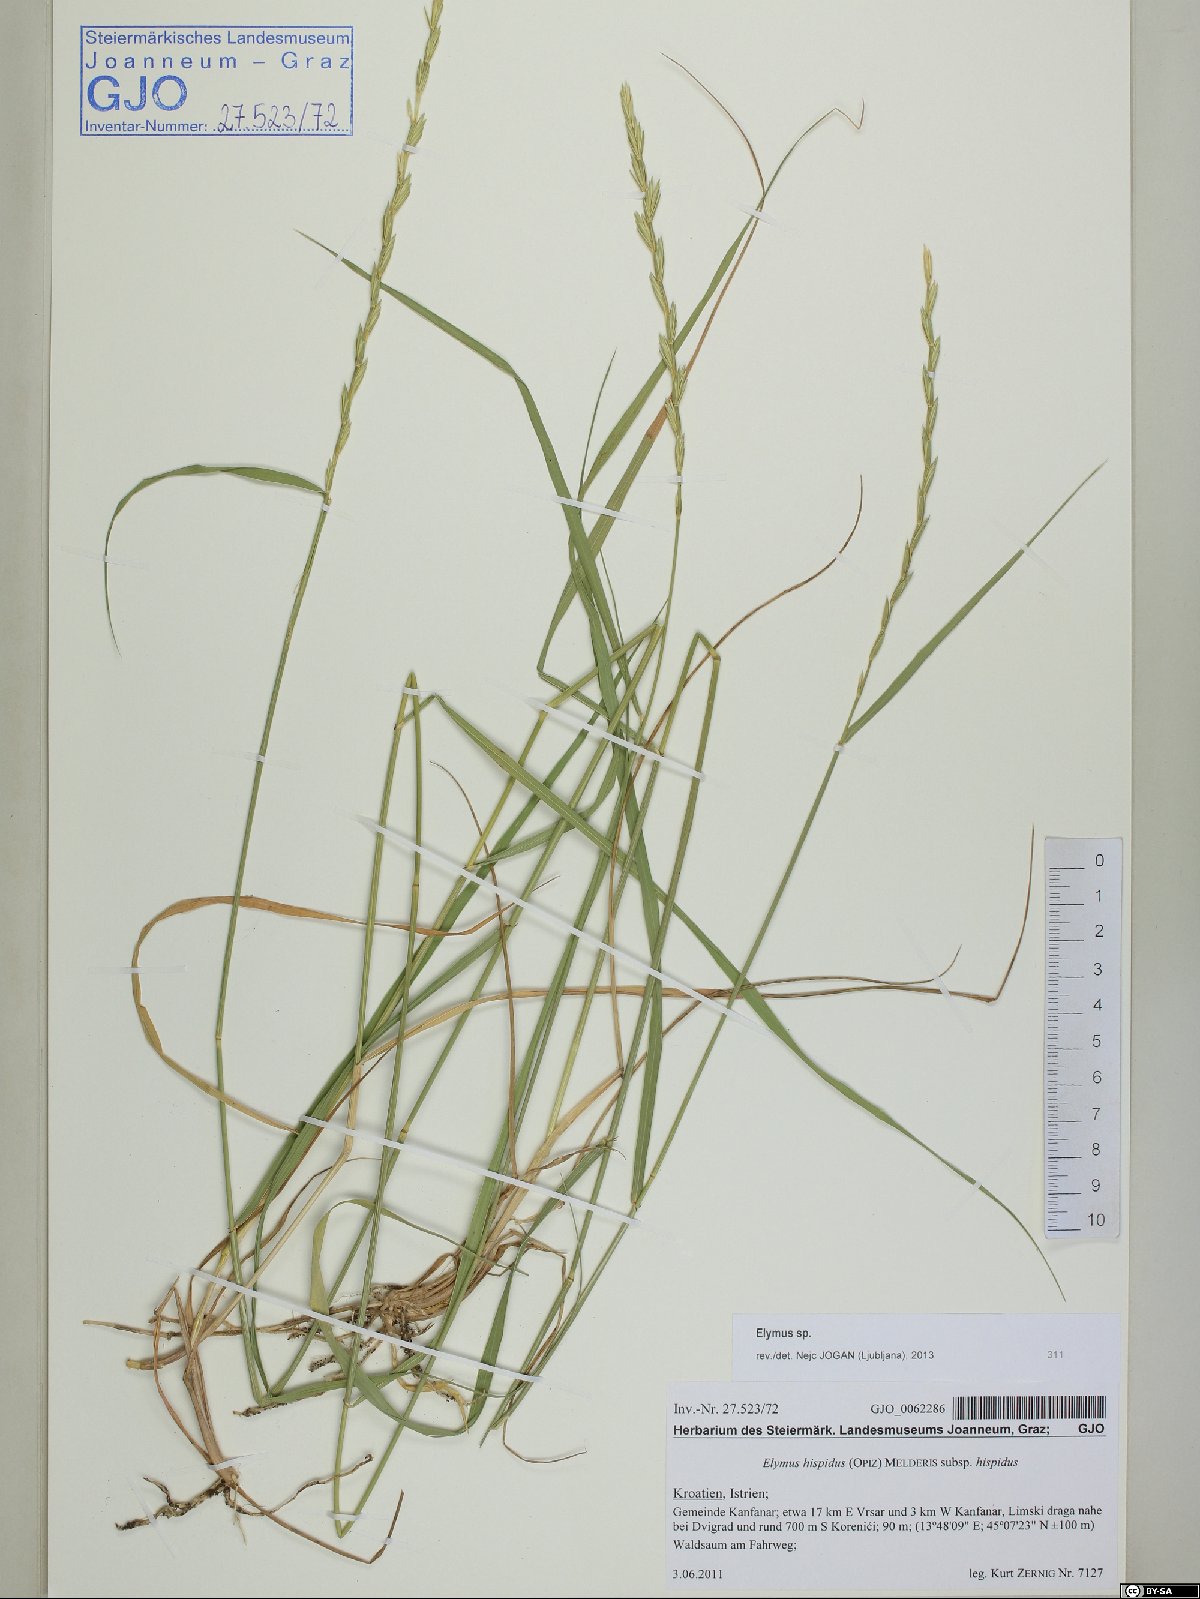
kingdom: Plantae
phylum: Tracheophyta
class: Liliopsida
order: Poales
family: Poaceae
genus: Elymus
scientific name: Elymus
